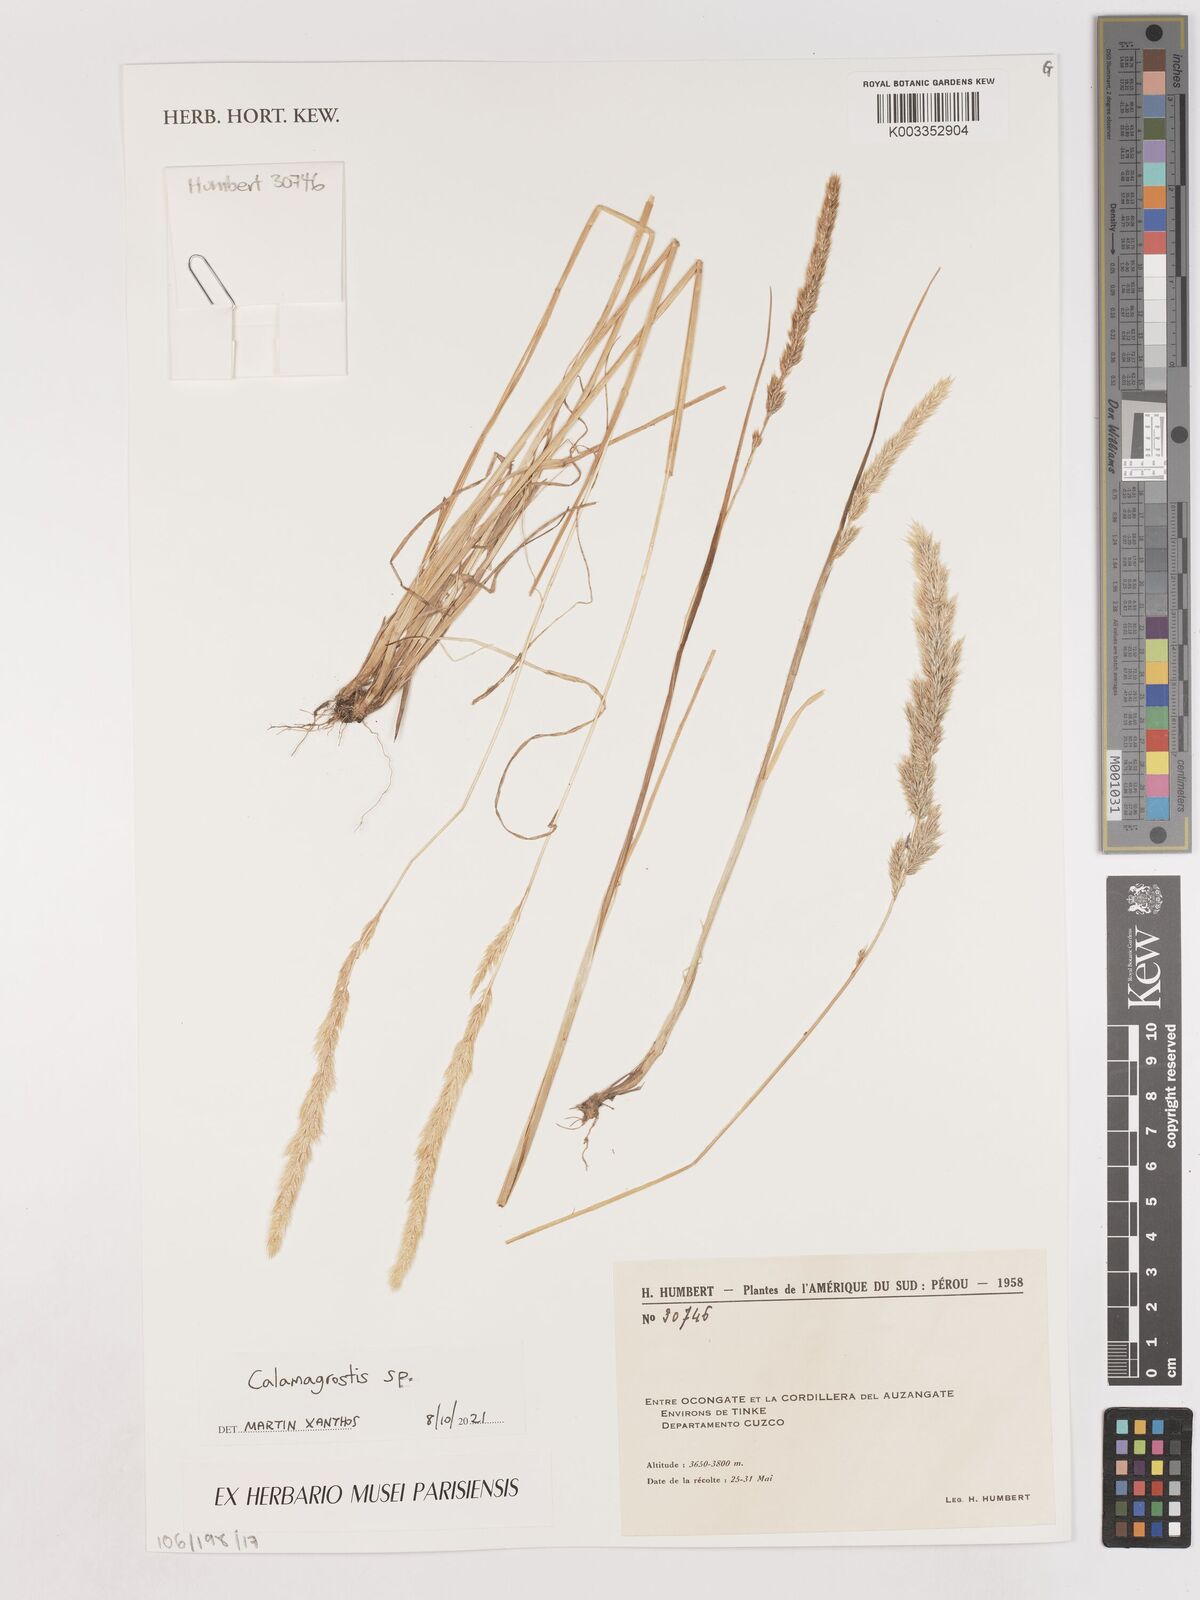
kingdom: Plantae
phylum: Tracheophyta
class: Liliopsida
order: Poales
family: Poaceae
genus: Calamagrostis
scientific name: Calamagrostis
